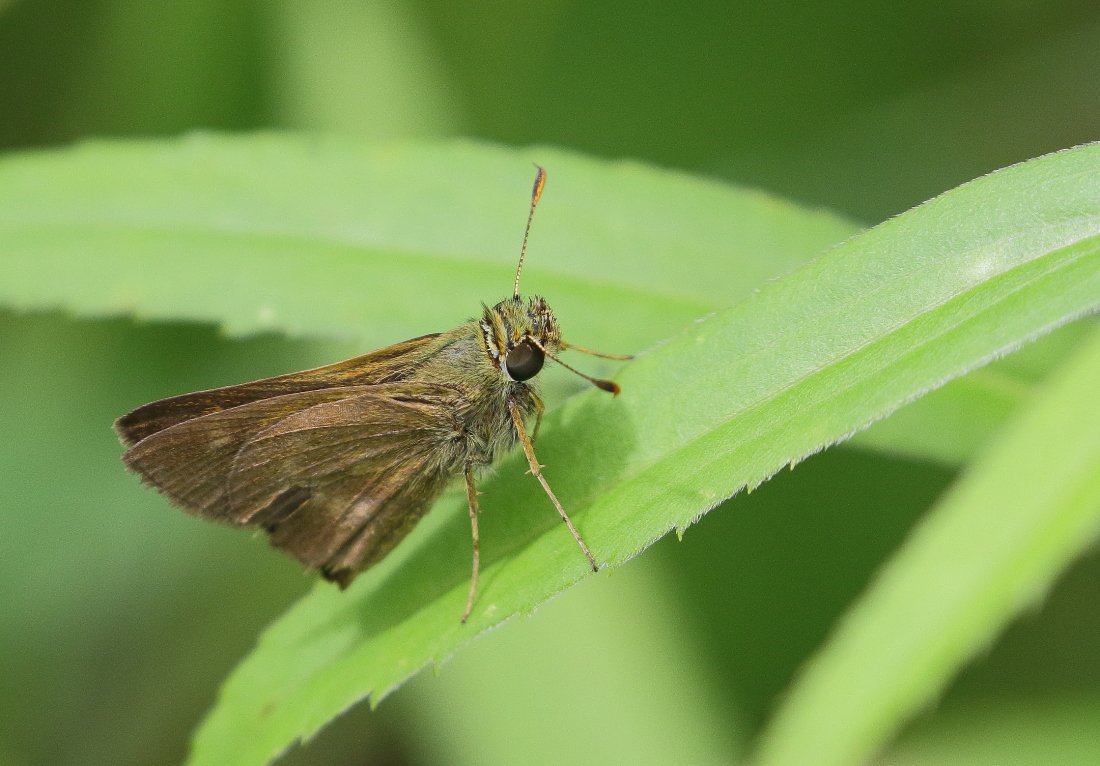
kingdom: Animalia
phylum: Arthropoda
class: Insecta
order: Lepidoptera
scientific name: Lepidoptera
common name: Butterflies
